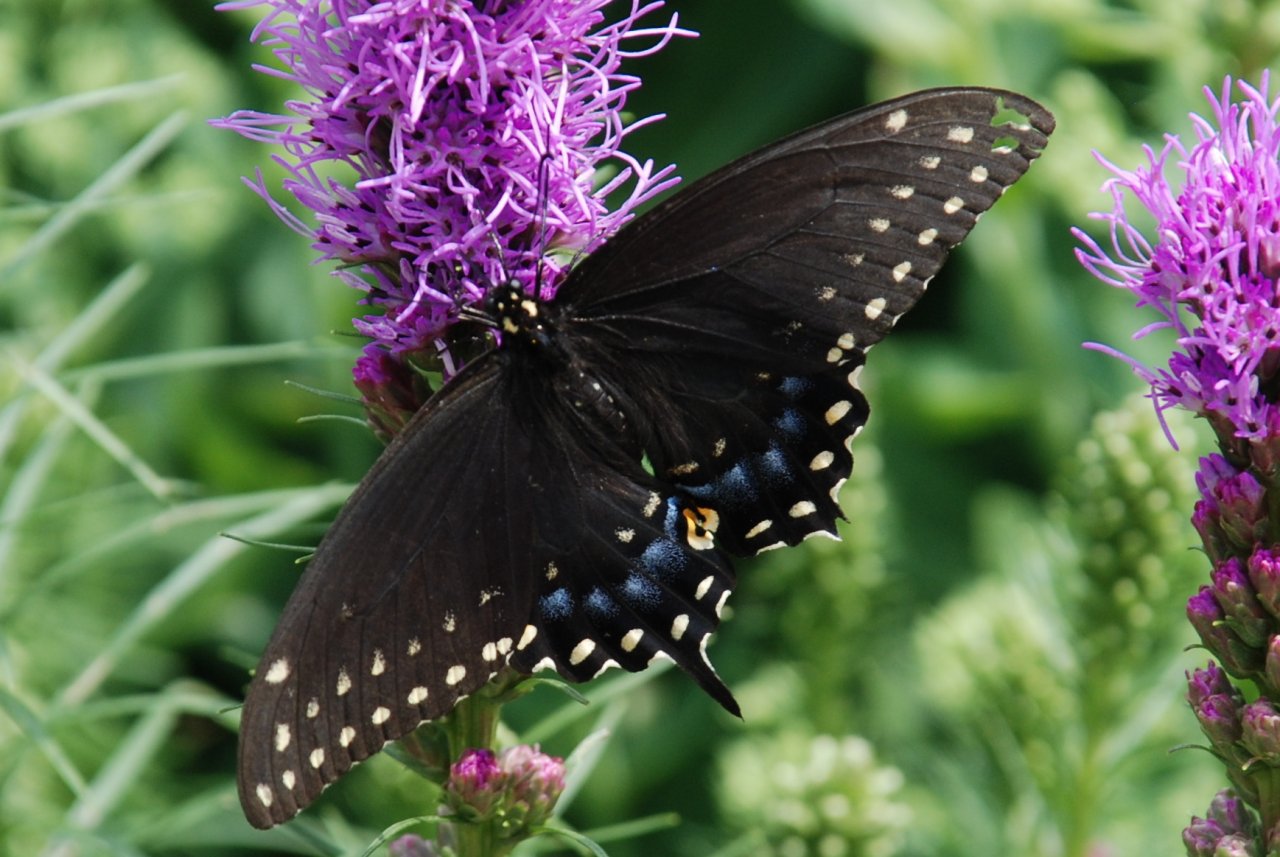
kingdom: Animalia
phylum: Arthropoda
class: Insecta
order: Lepidoptera
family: Papilionidae
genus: Papilio
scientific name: Papilio polyxenes
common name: Black Swallowtail
